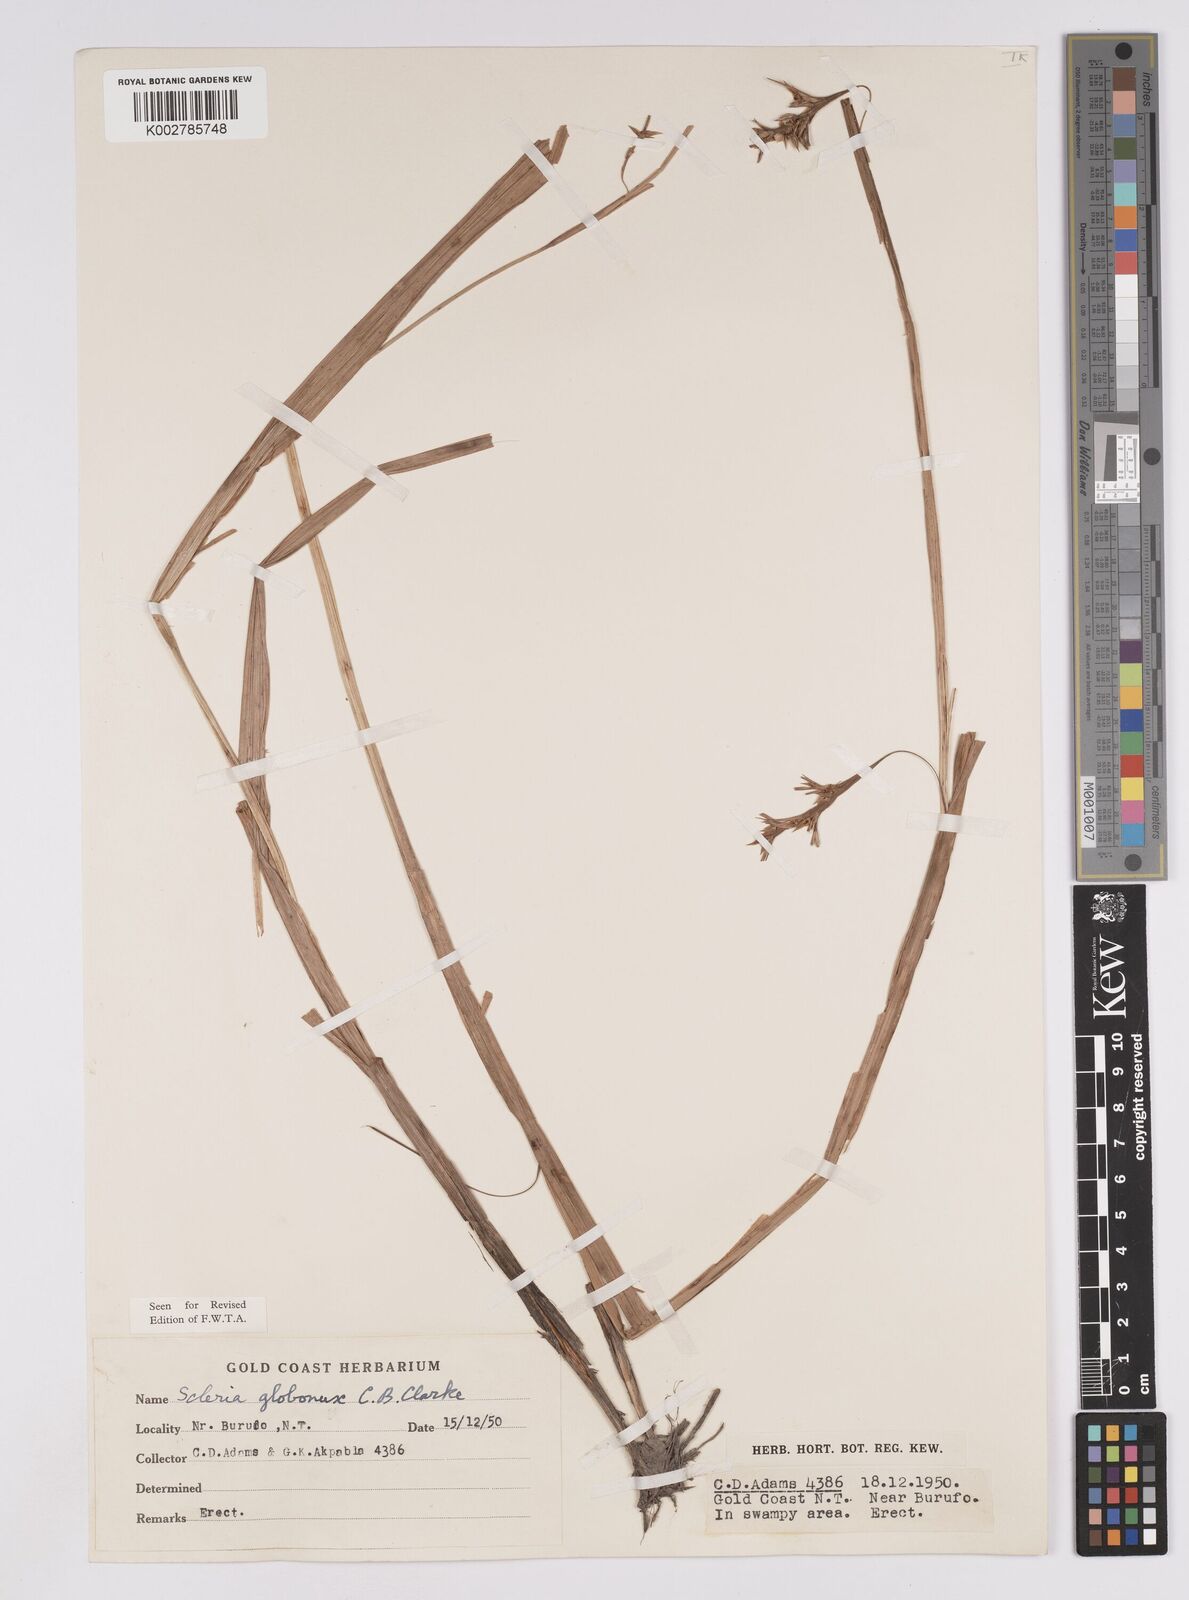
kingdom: Plantae
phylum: Tracheophyta
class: Liliopsida
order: Poales
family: Cyperaceae
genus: Scleria
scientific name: Scleria globonux
